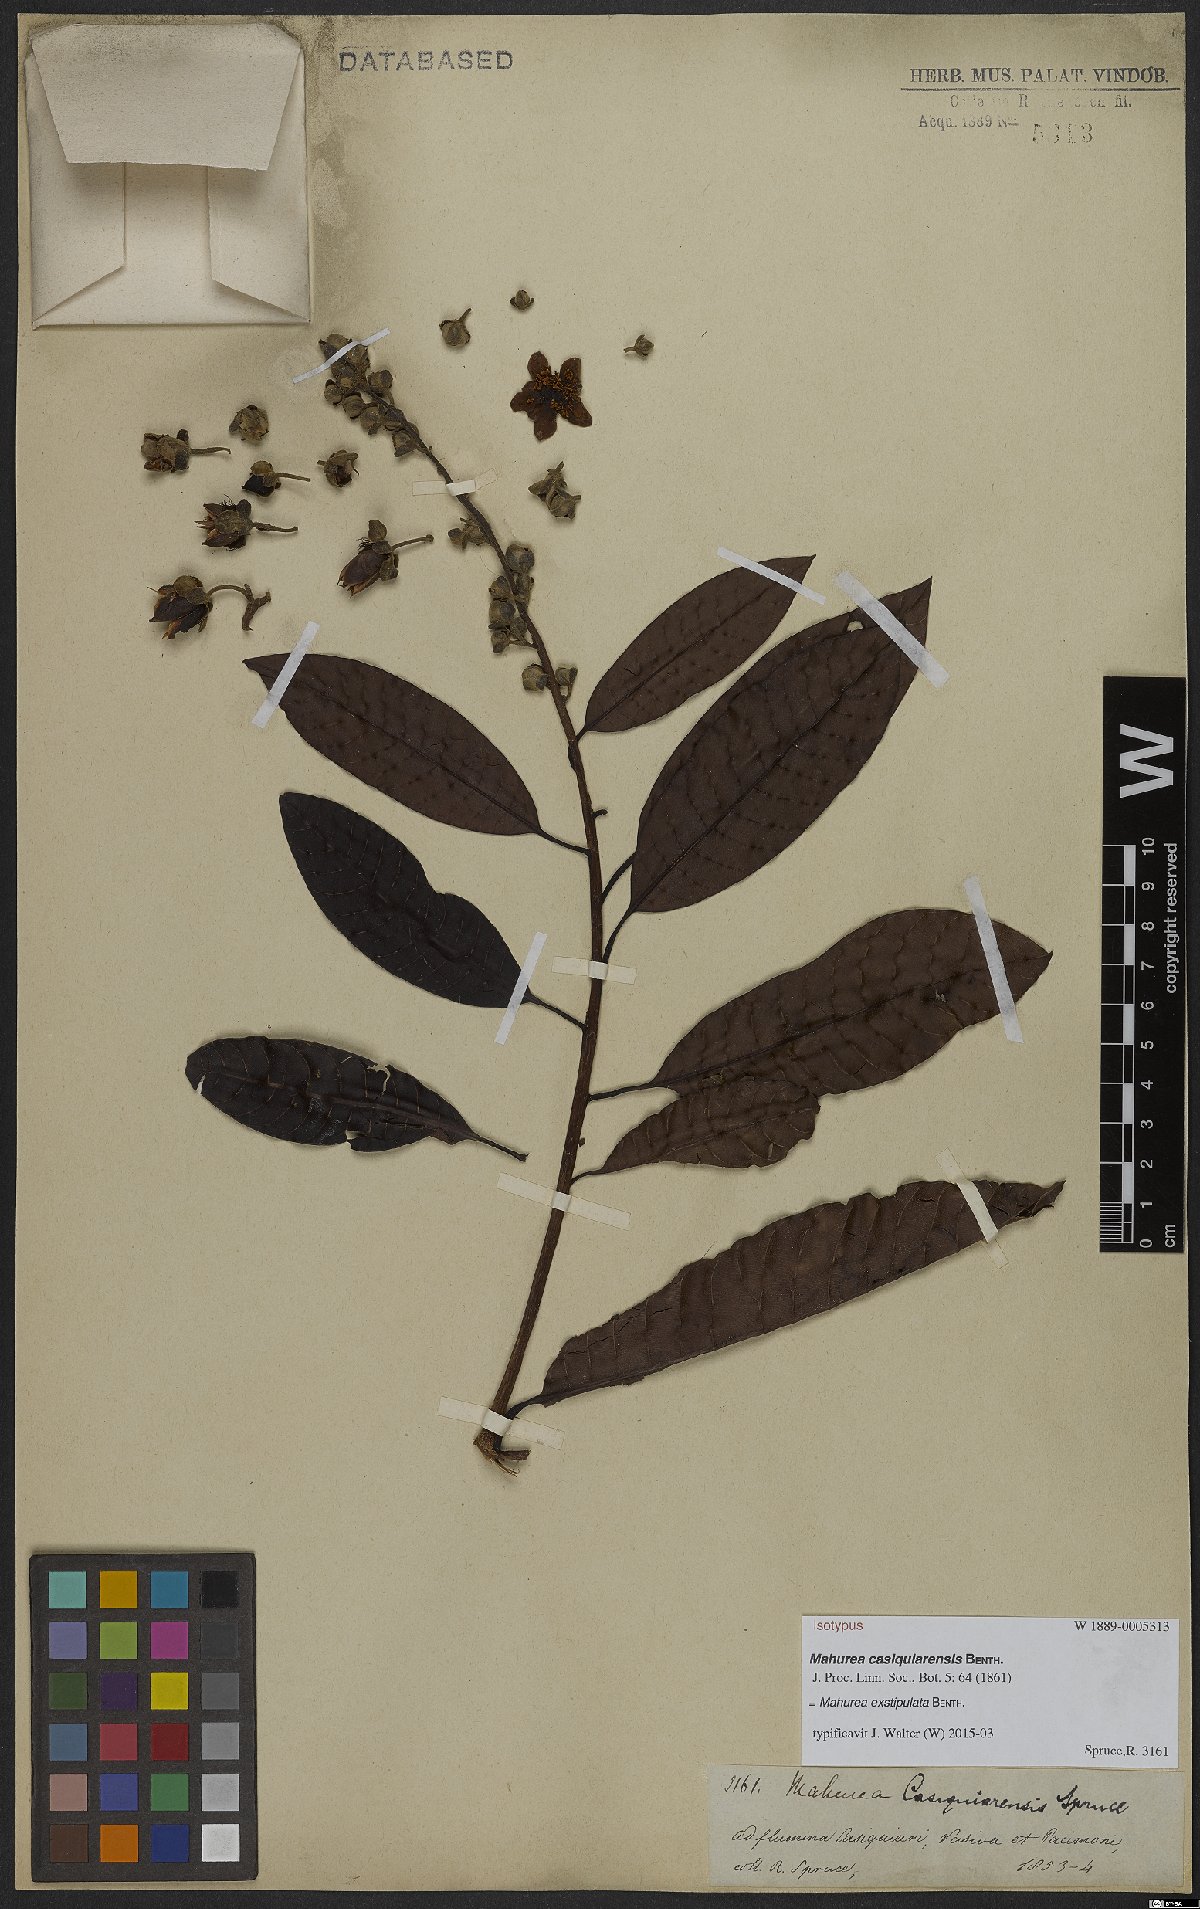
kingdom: Plantae
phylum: Tracheophyta
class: Magnoliopsida
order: Malpighiales
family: Calophyllaceae
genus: Mahurea
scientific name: Mahurea exstipulata
